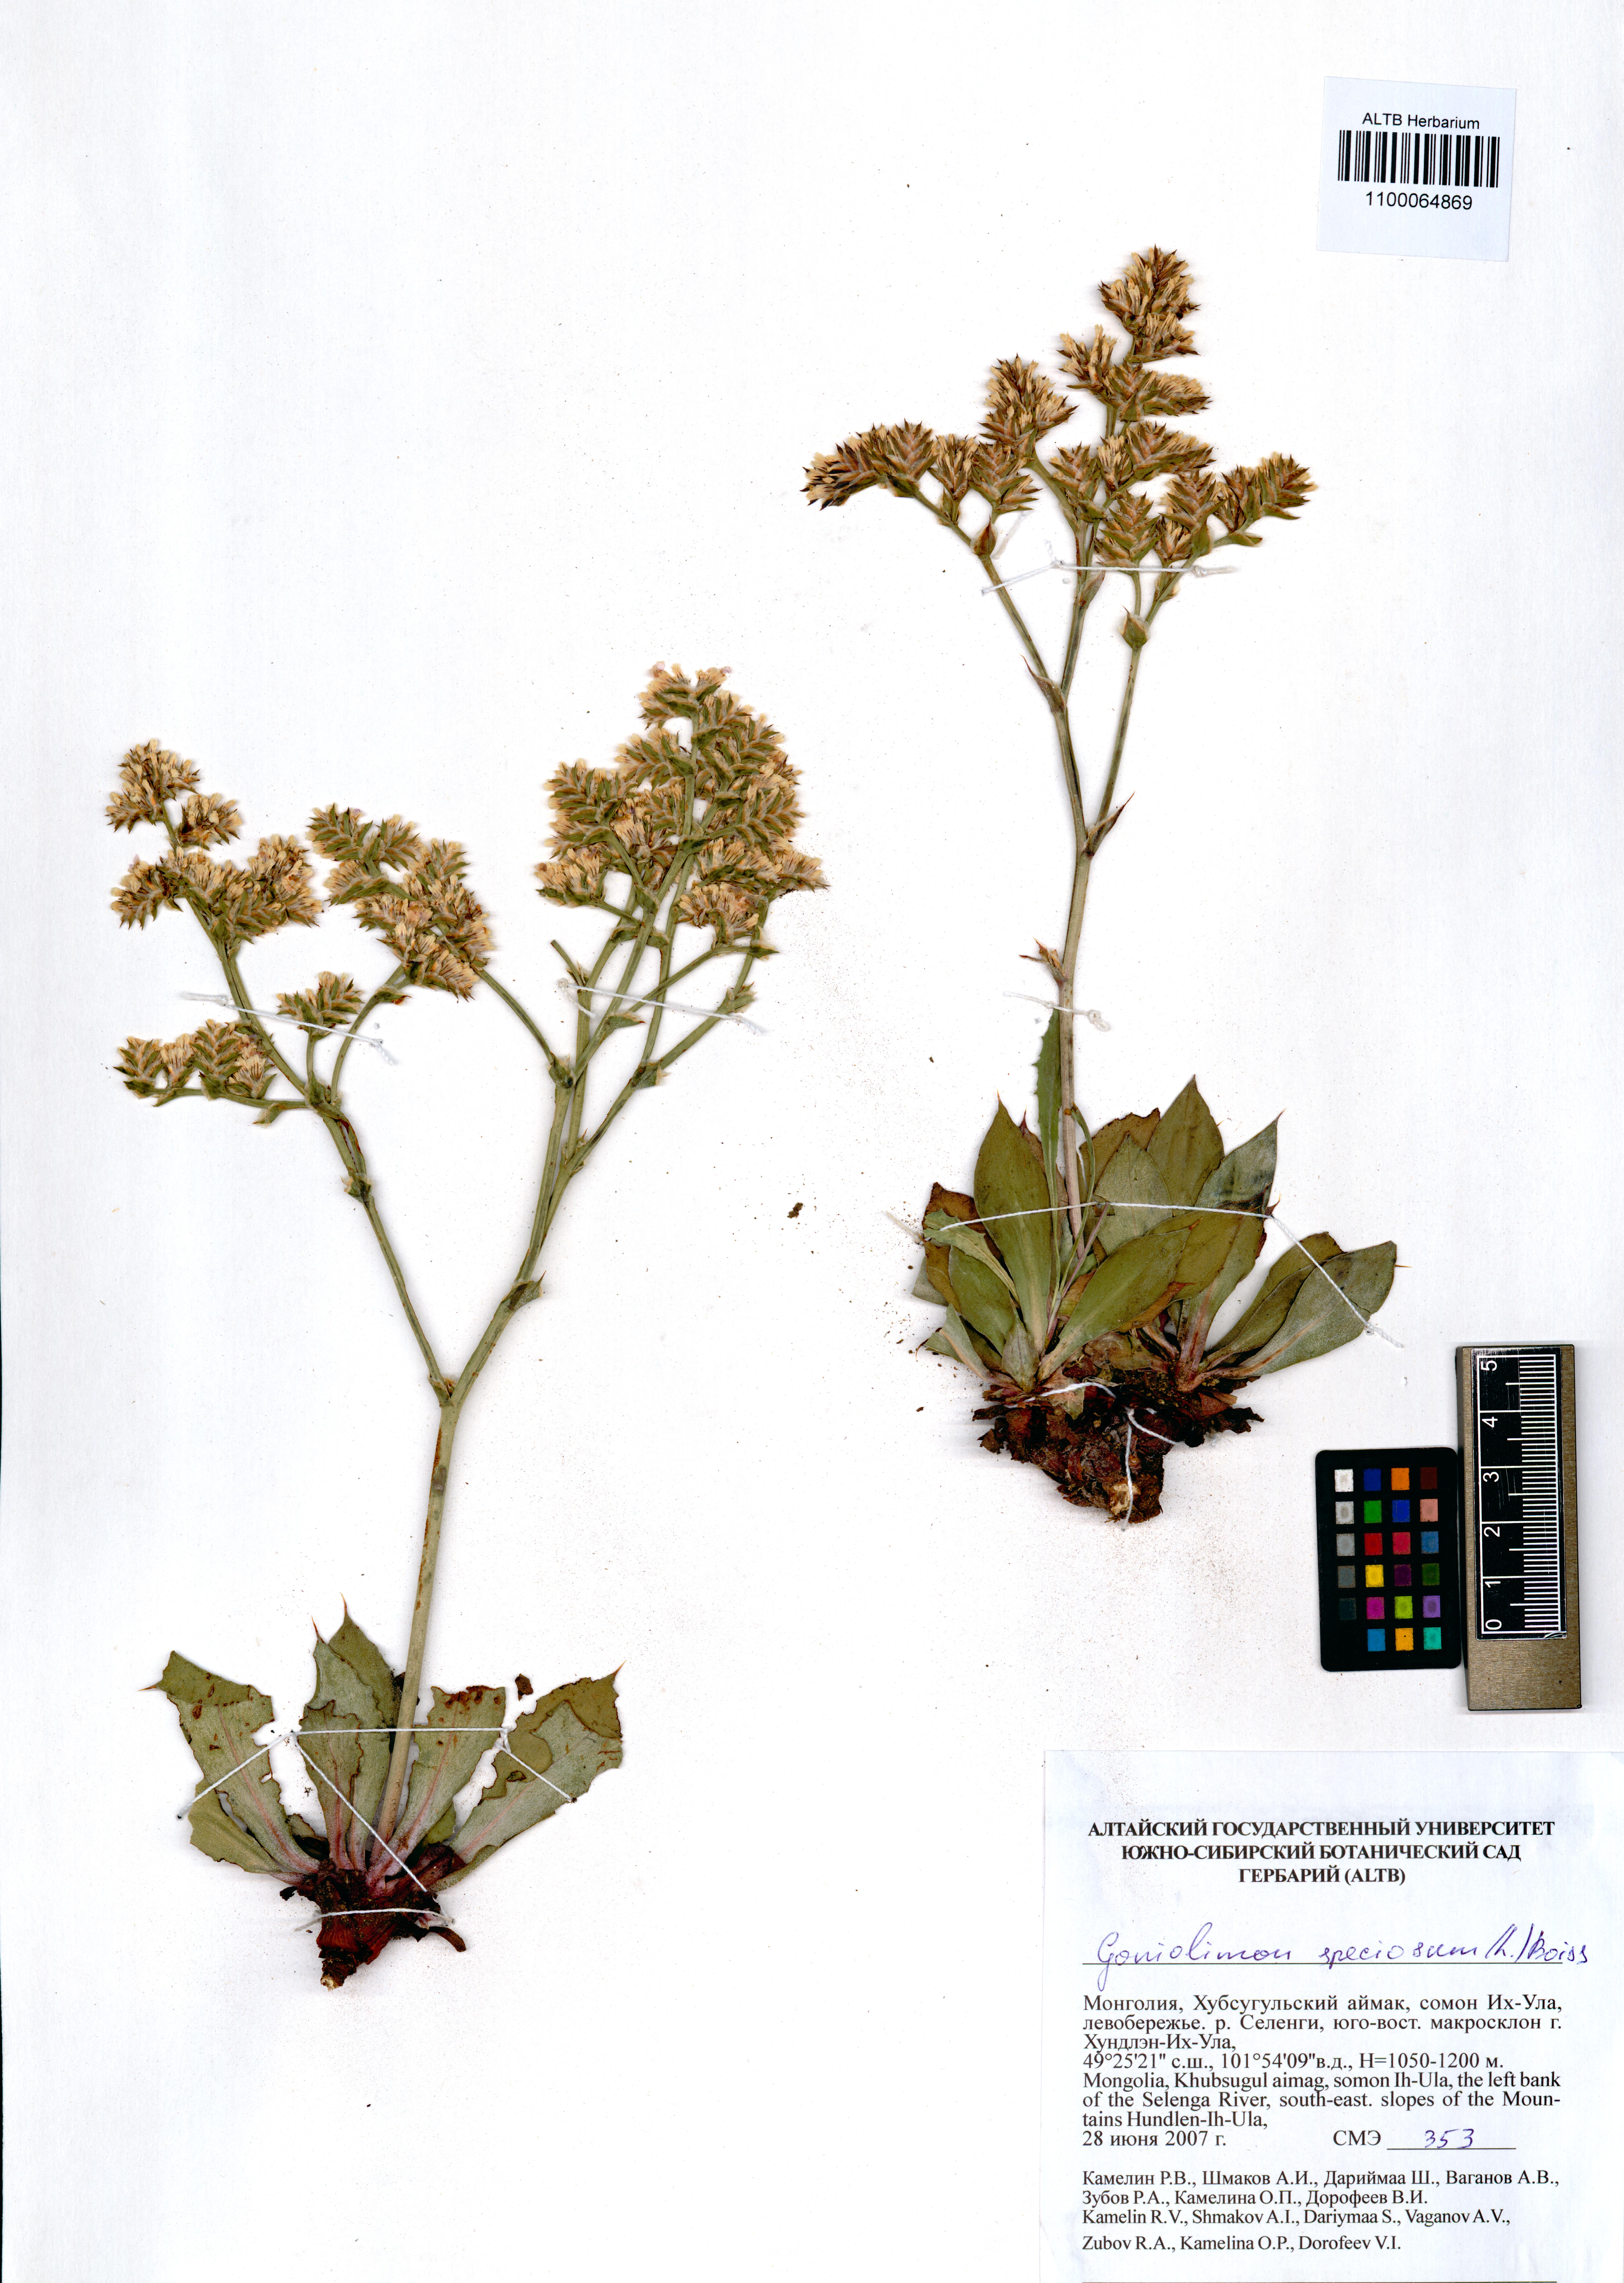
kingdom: Plantae
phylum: Tracheophyta
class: Magnoliopsida
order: Caryophyllales
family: Plumbaginaceae
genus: Goniolimon
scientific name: Goniolimon speciosum
